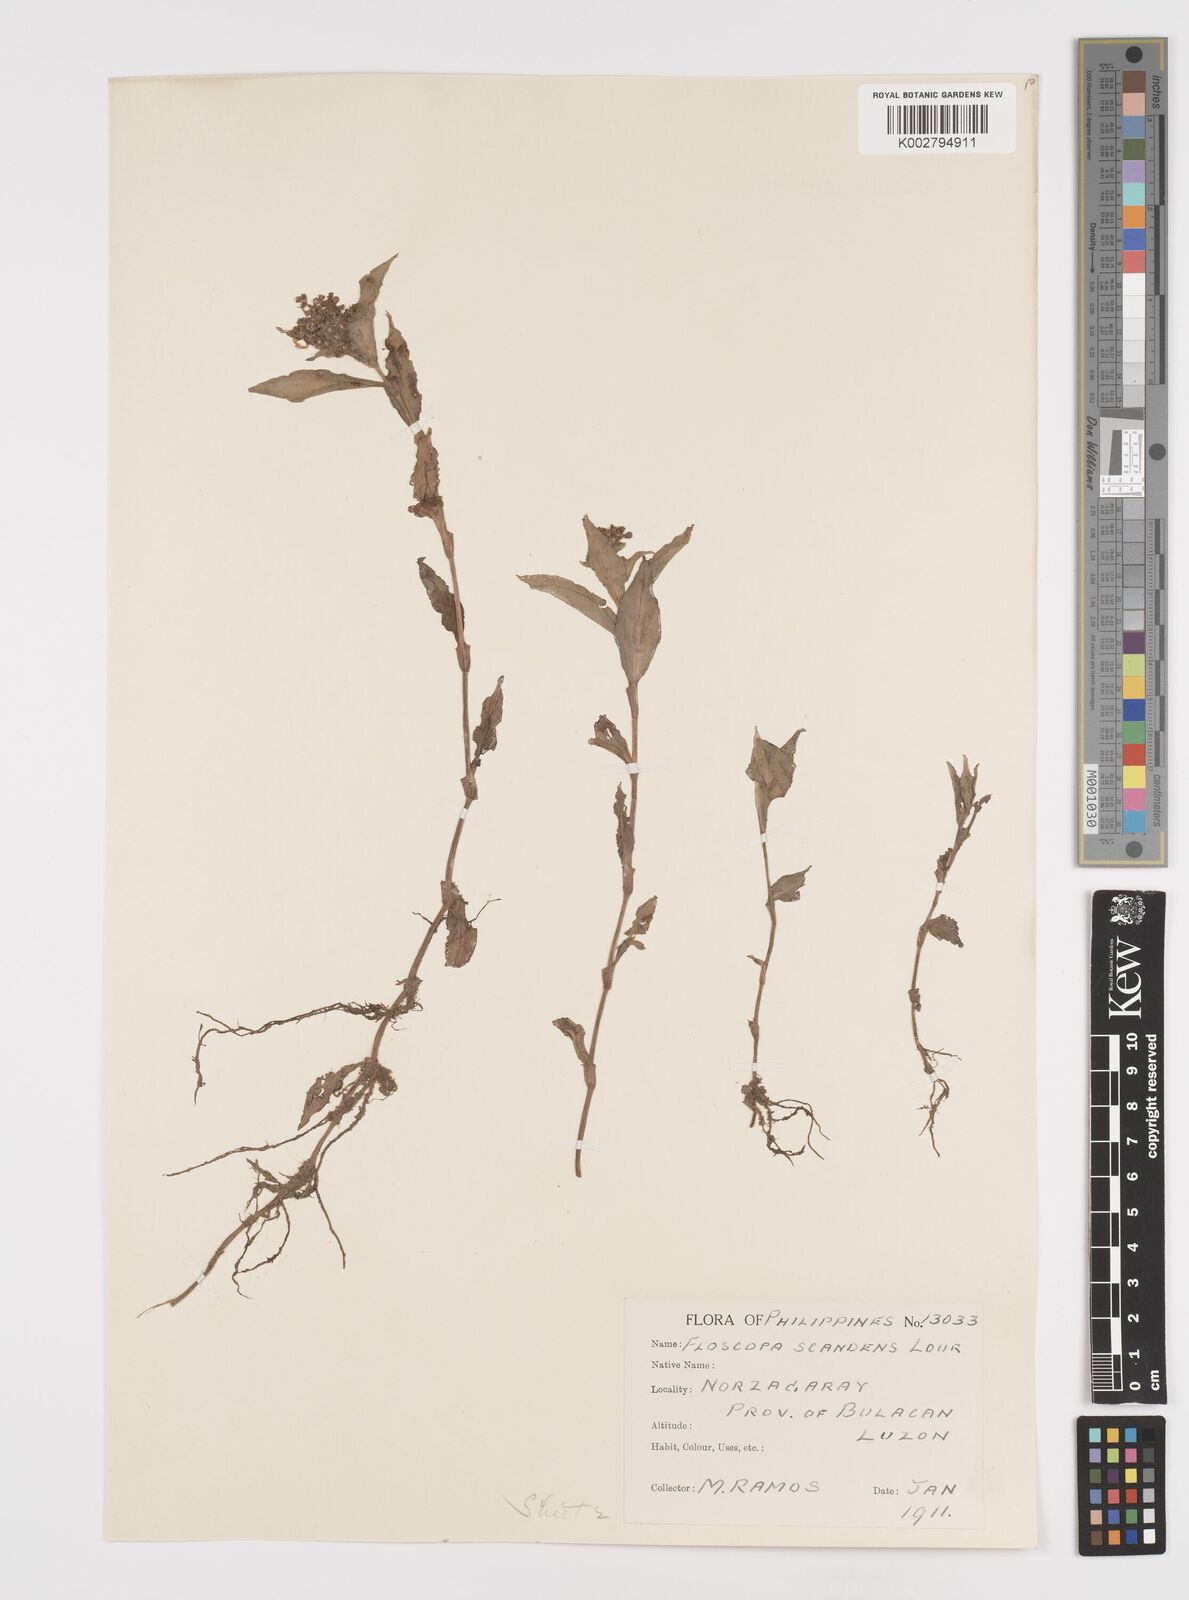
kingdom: Plantae
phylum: Tracheophyta
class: Liliopsida
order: Commelinales
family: Commelinaceae
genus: Floscopa
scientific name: Floscopa scandens
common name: Climbing flower cup
